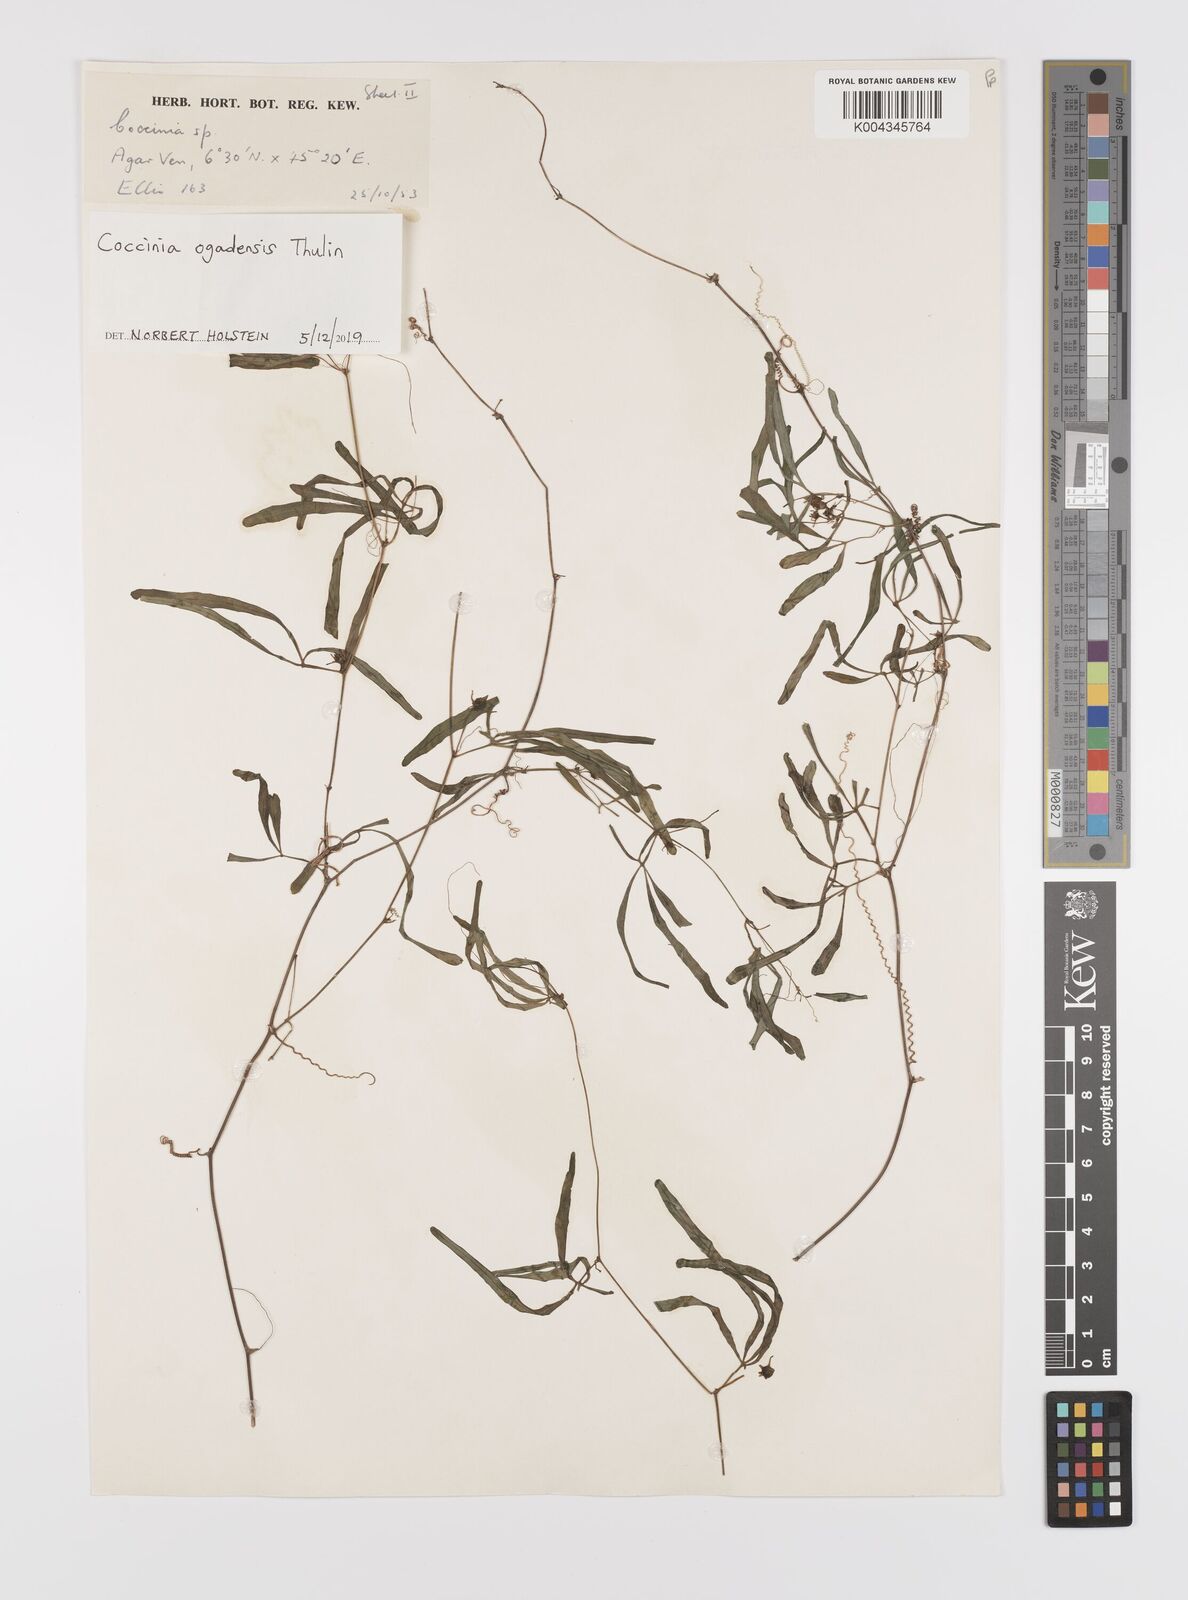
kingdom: Plantae
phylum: Tracheophyta
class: Magnoliopsida
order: Cucurbitales
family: Cucurbitaceae
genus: Coccinia
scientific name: Coccinia ogadensis
